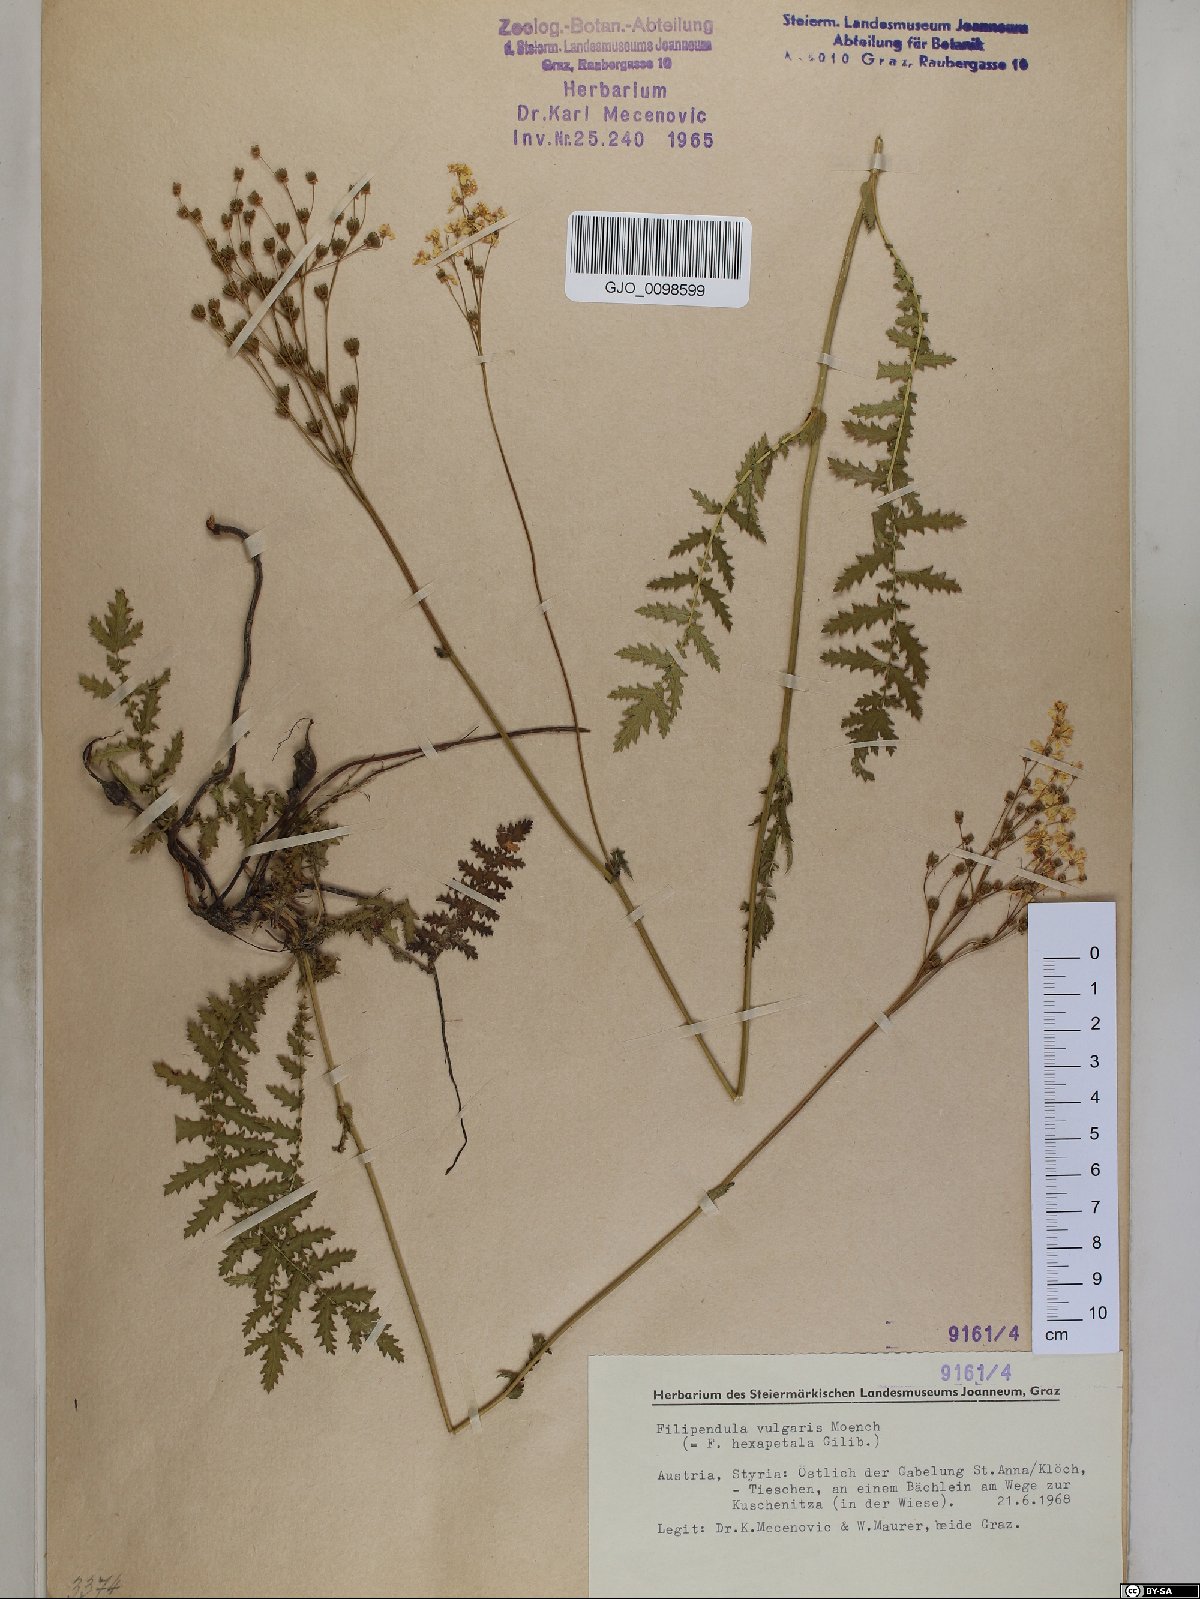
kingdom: Plantae
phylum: Tracheophyta
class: Magnoliopsida
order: Rosales
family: Rosaceae
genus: Filipendula
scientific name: Filipendula vulgaris
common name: Dropwort
